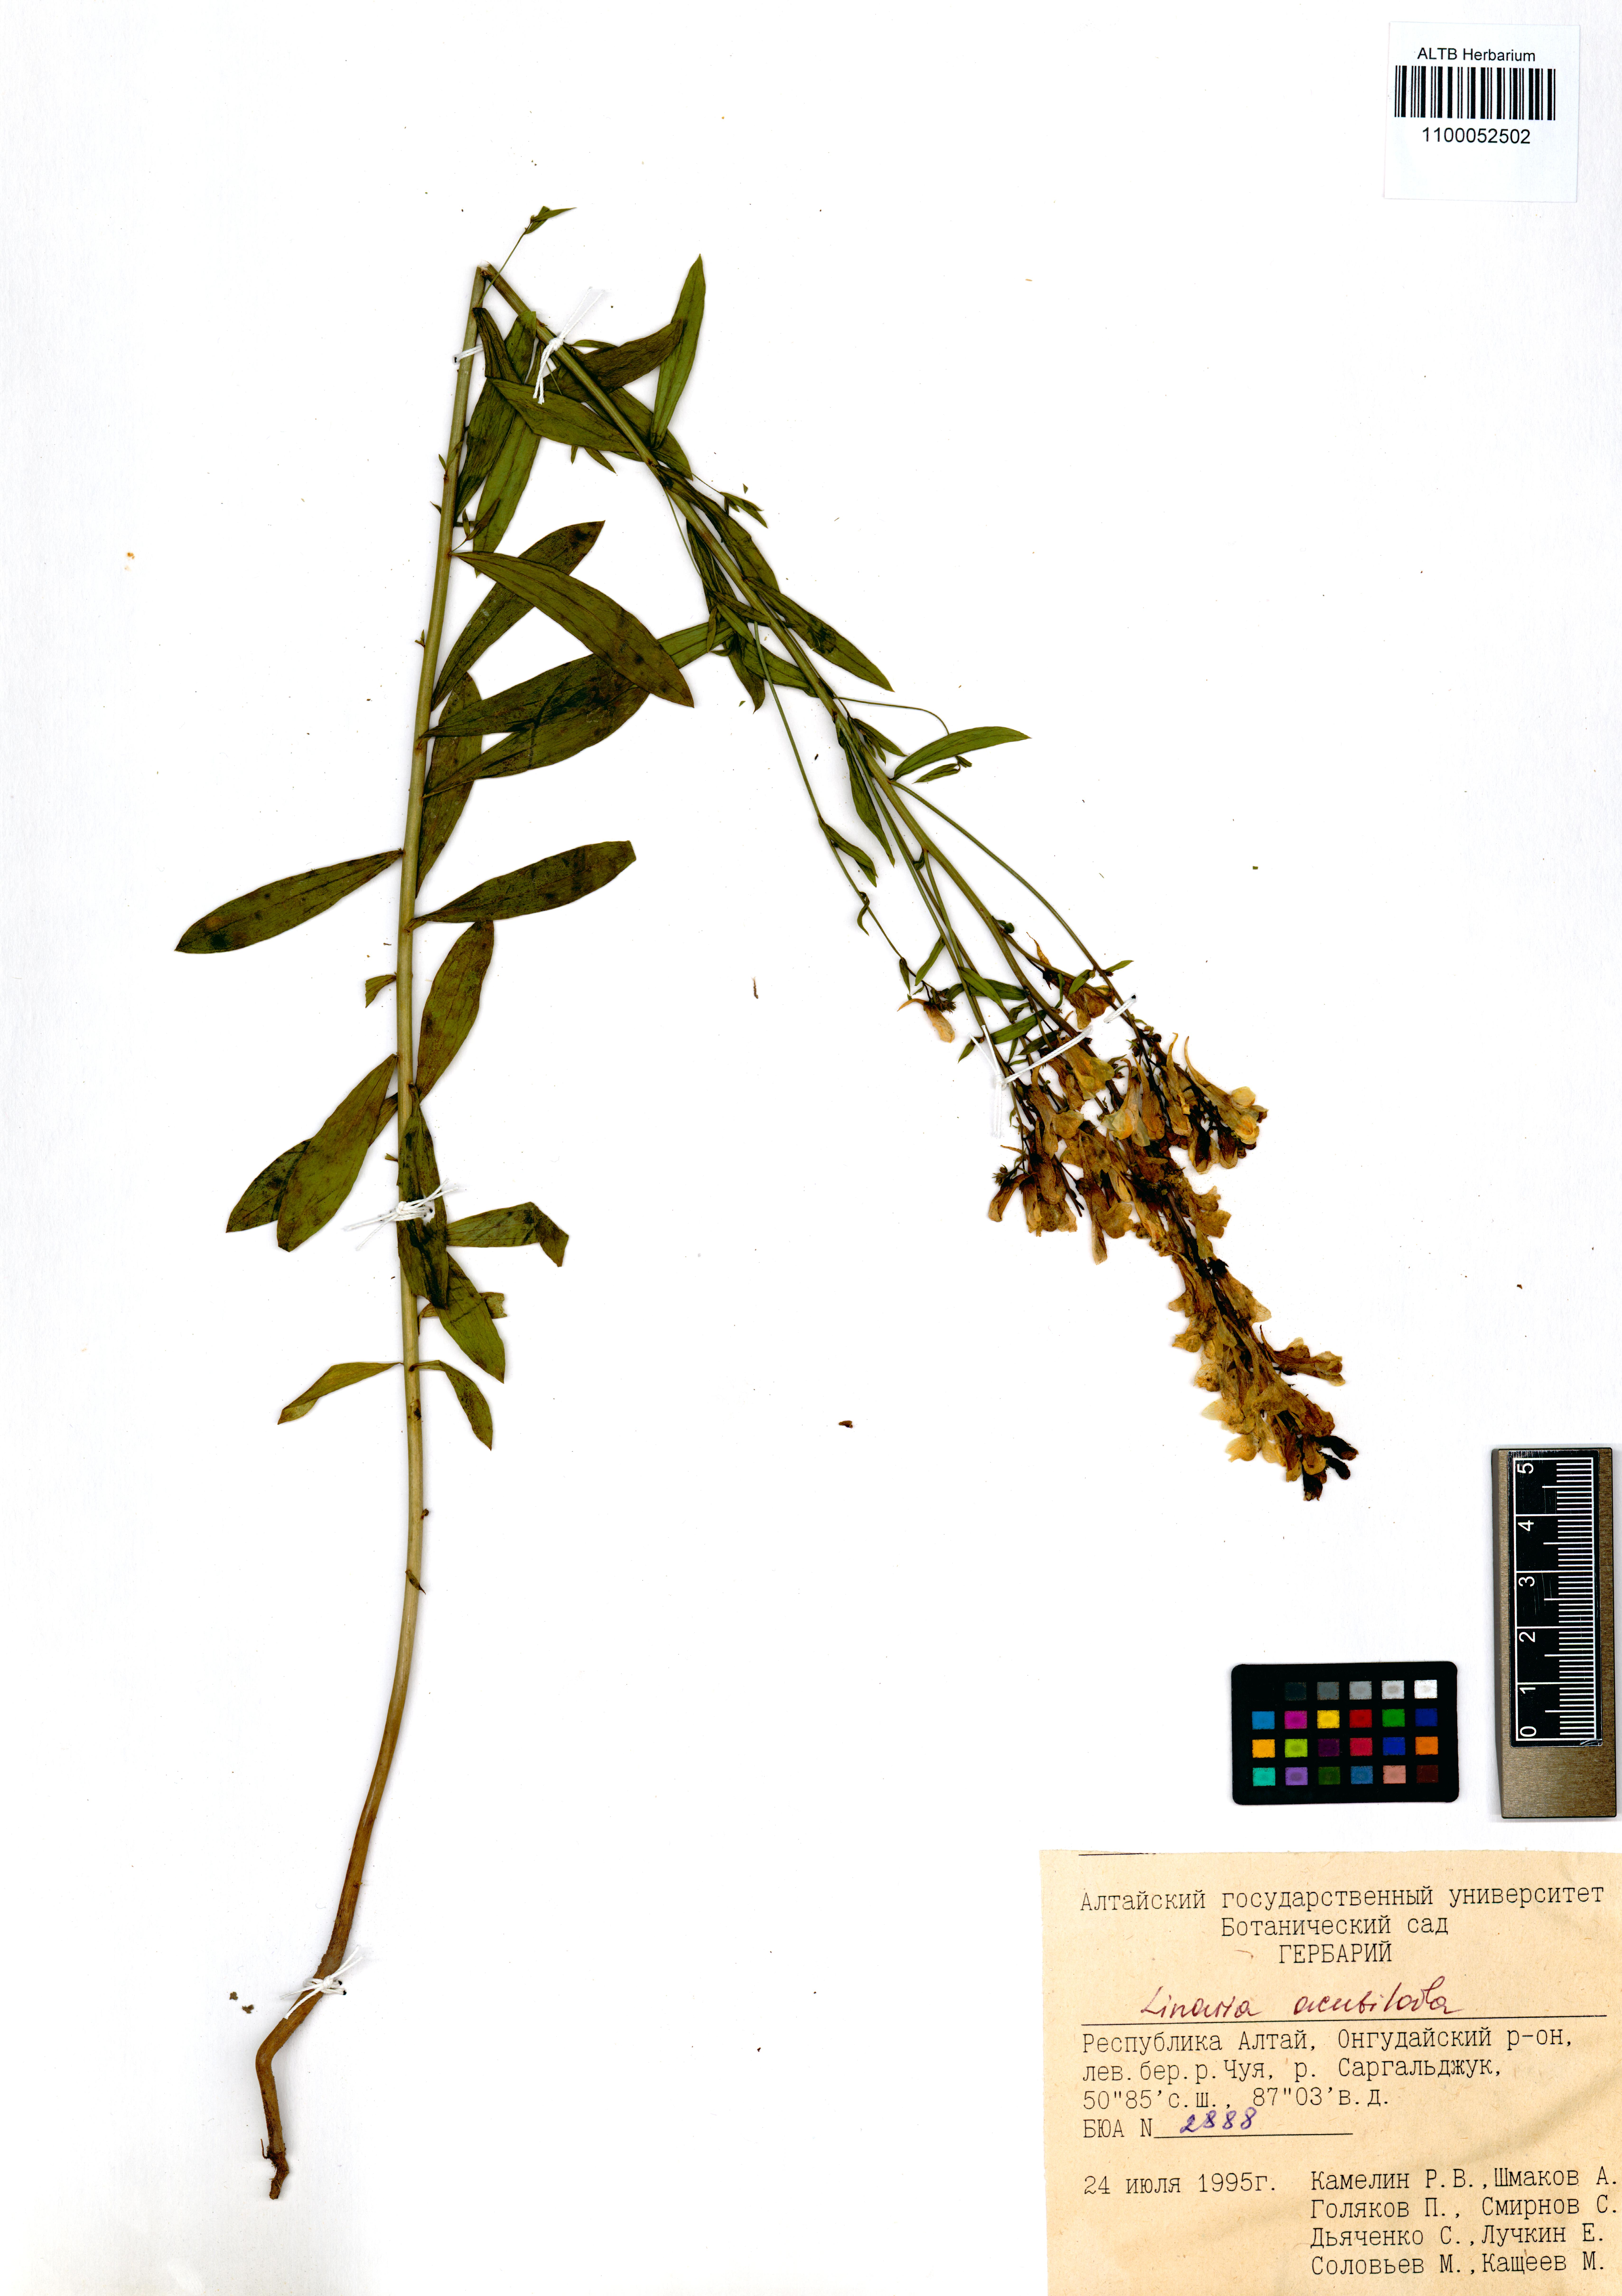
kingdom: Plantae
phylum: Tracheophyta
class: Magnoliopsida
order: Lamiales
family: Plantaginaceae
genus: Linaria
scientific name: Linaria acutiloba
